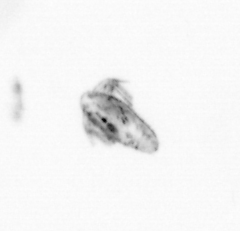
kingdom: Animalia
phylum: Arthropoda
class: Copepoda
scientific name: Copepoda
